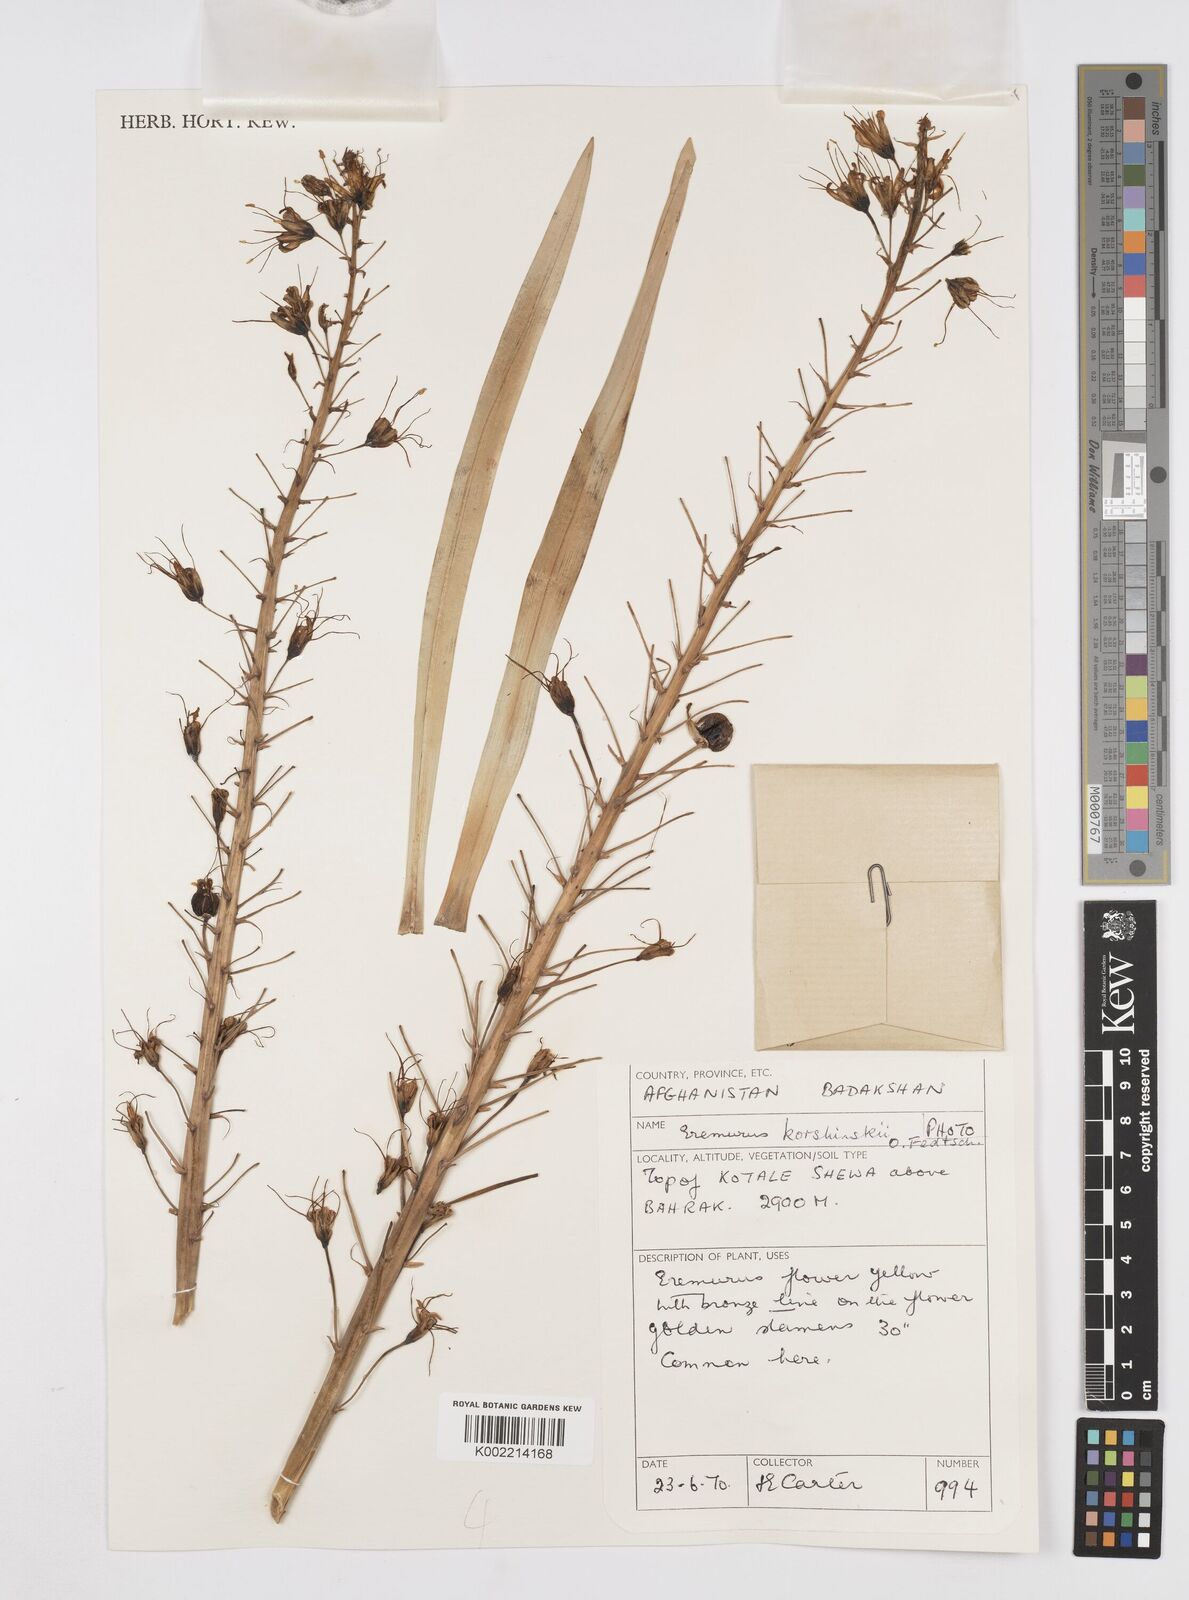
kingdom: Plantae
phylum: Tracheophyta
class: Liliopsida
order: Asparagales
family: Asphodelaceae
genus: Eremurus
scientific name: Eremurus korshinskyi
